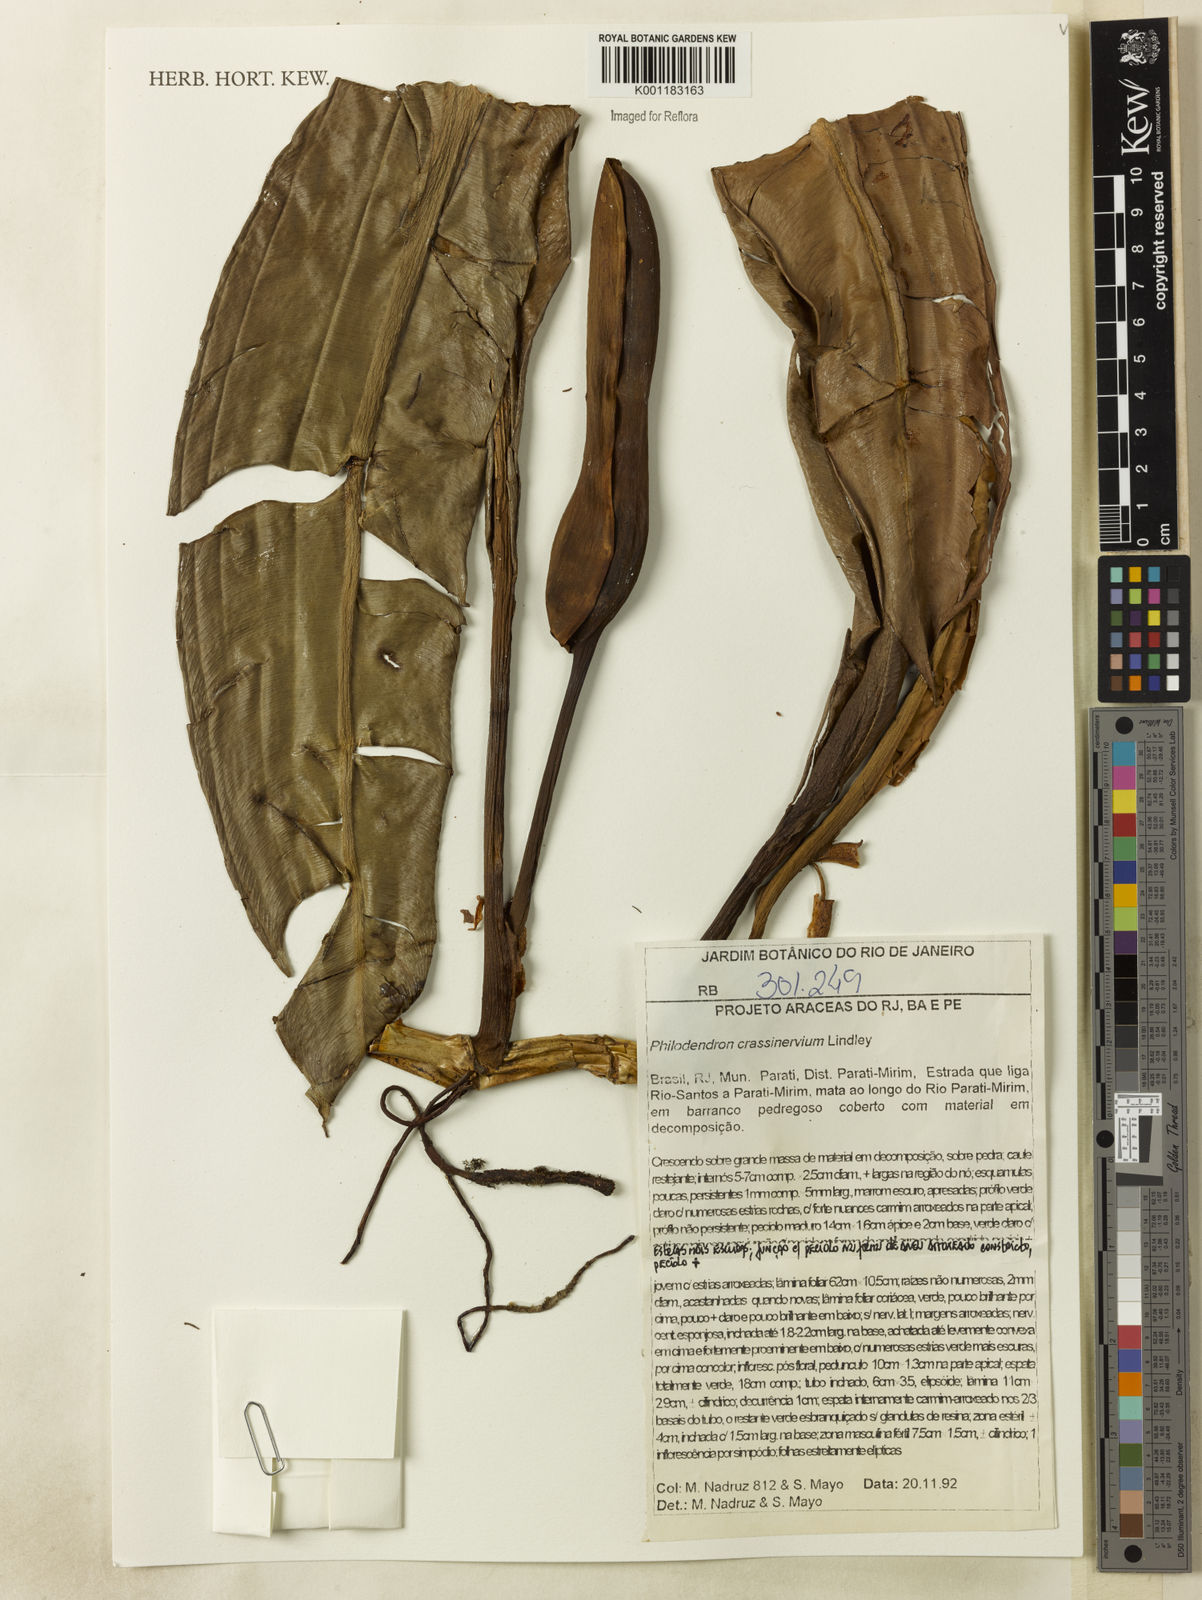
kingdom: Plantae
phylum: Tracheophyta
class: Liliopsida
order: Alismatales
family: Araceae
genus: Philodendron
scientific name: Philodendron crassinervium
